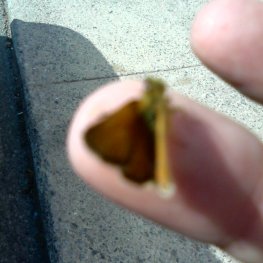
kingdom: Animalia
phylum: Arthropoda
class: Insecta
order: Lepidoptera
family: Hesperiidae
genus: Atrytone
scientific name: Atrytone delaware
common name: Delaware Skipper
